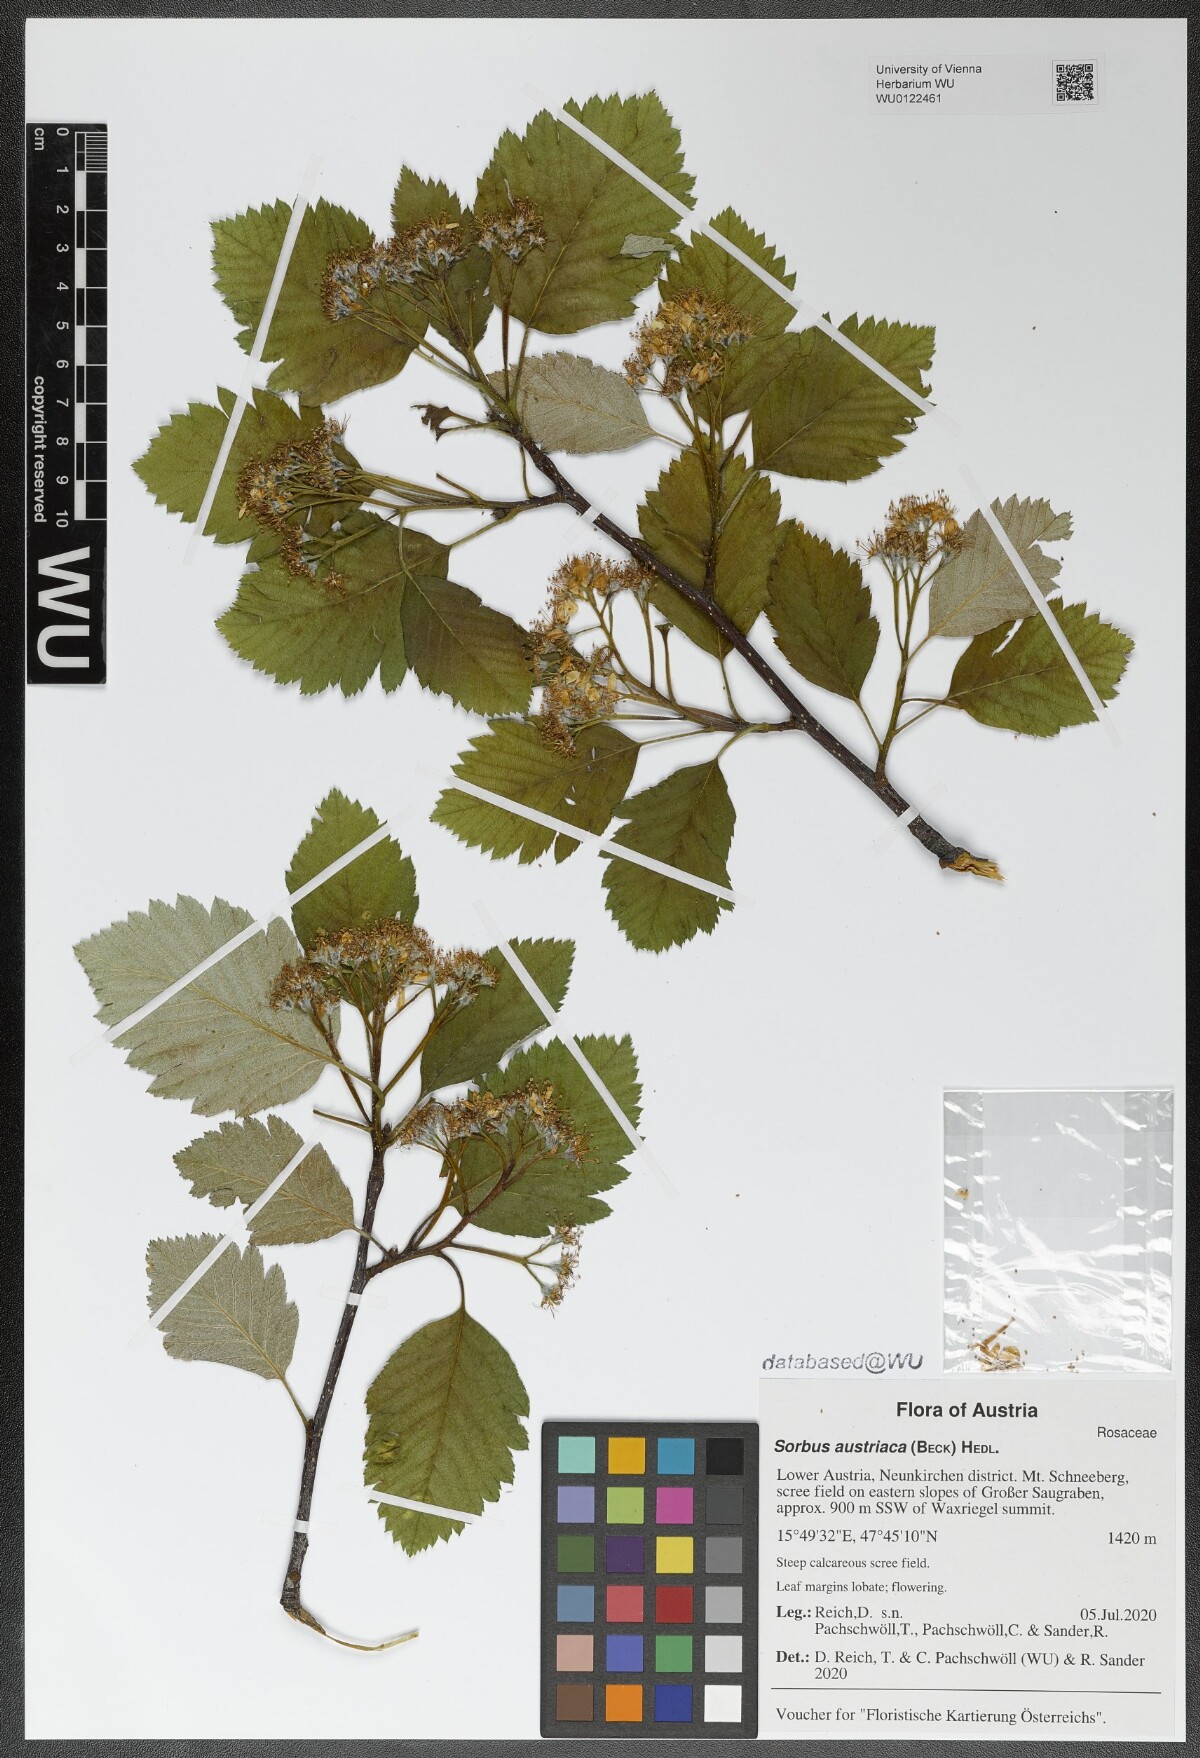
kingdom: Plantae
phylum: Tracheophyta
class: Magnoliopsida
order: Rosales
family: Rosaceae
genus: Hedlundia
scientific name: Hedlundia austriaca
